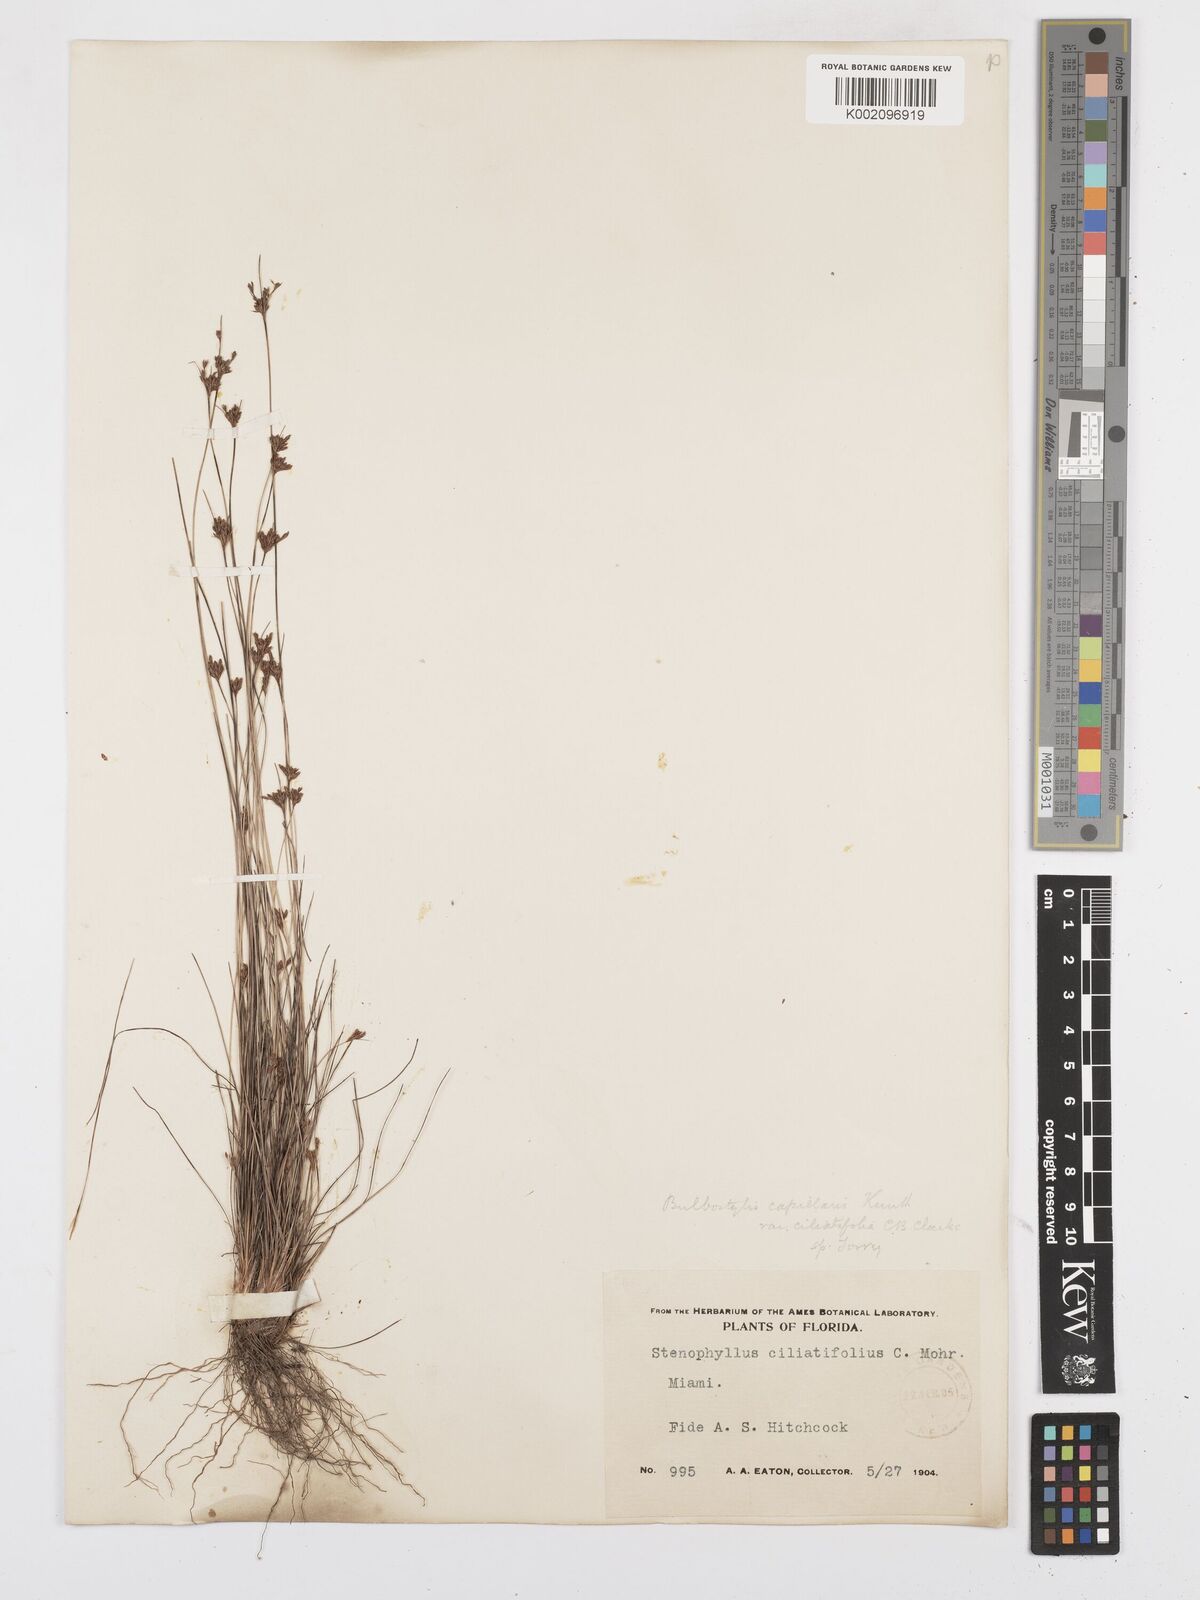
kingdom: Plantae
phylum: Tracheophyta
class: Liliopsida
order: Poales
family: Cyperaceae
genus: Bulbostylis
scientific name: Bulbostylis ciliatifolia
